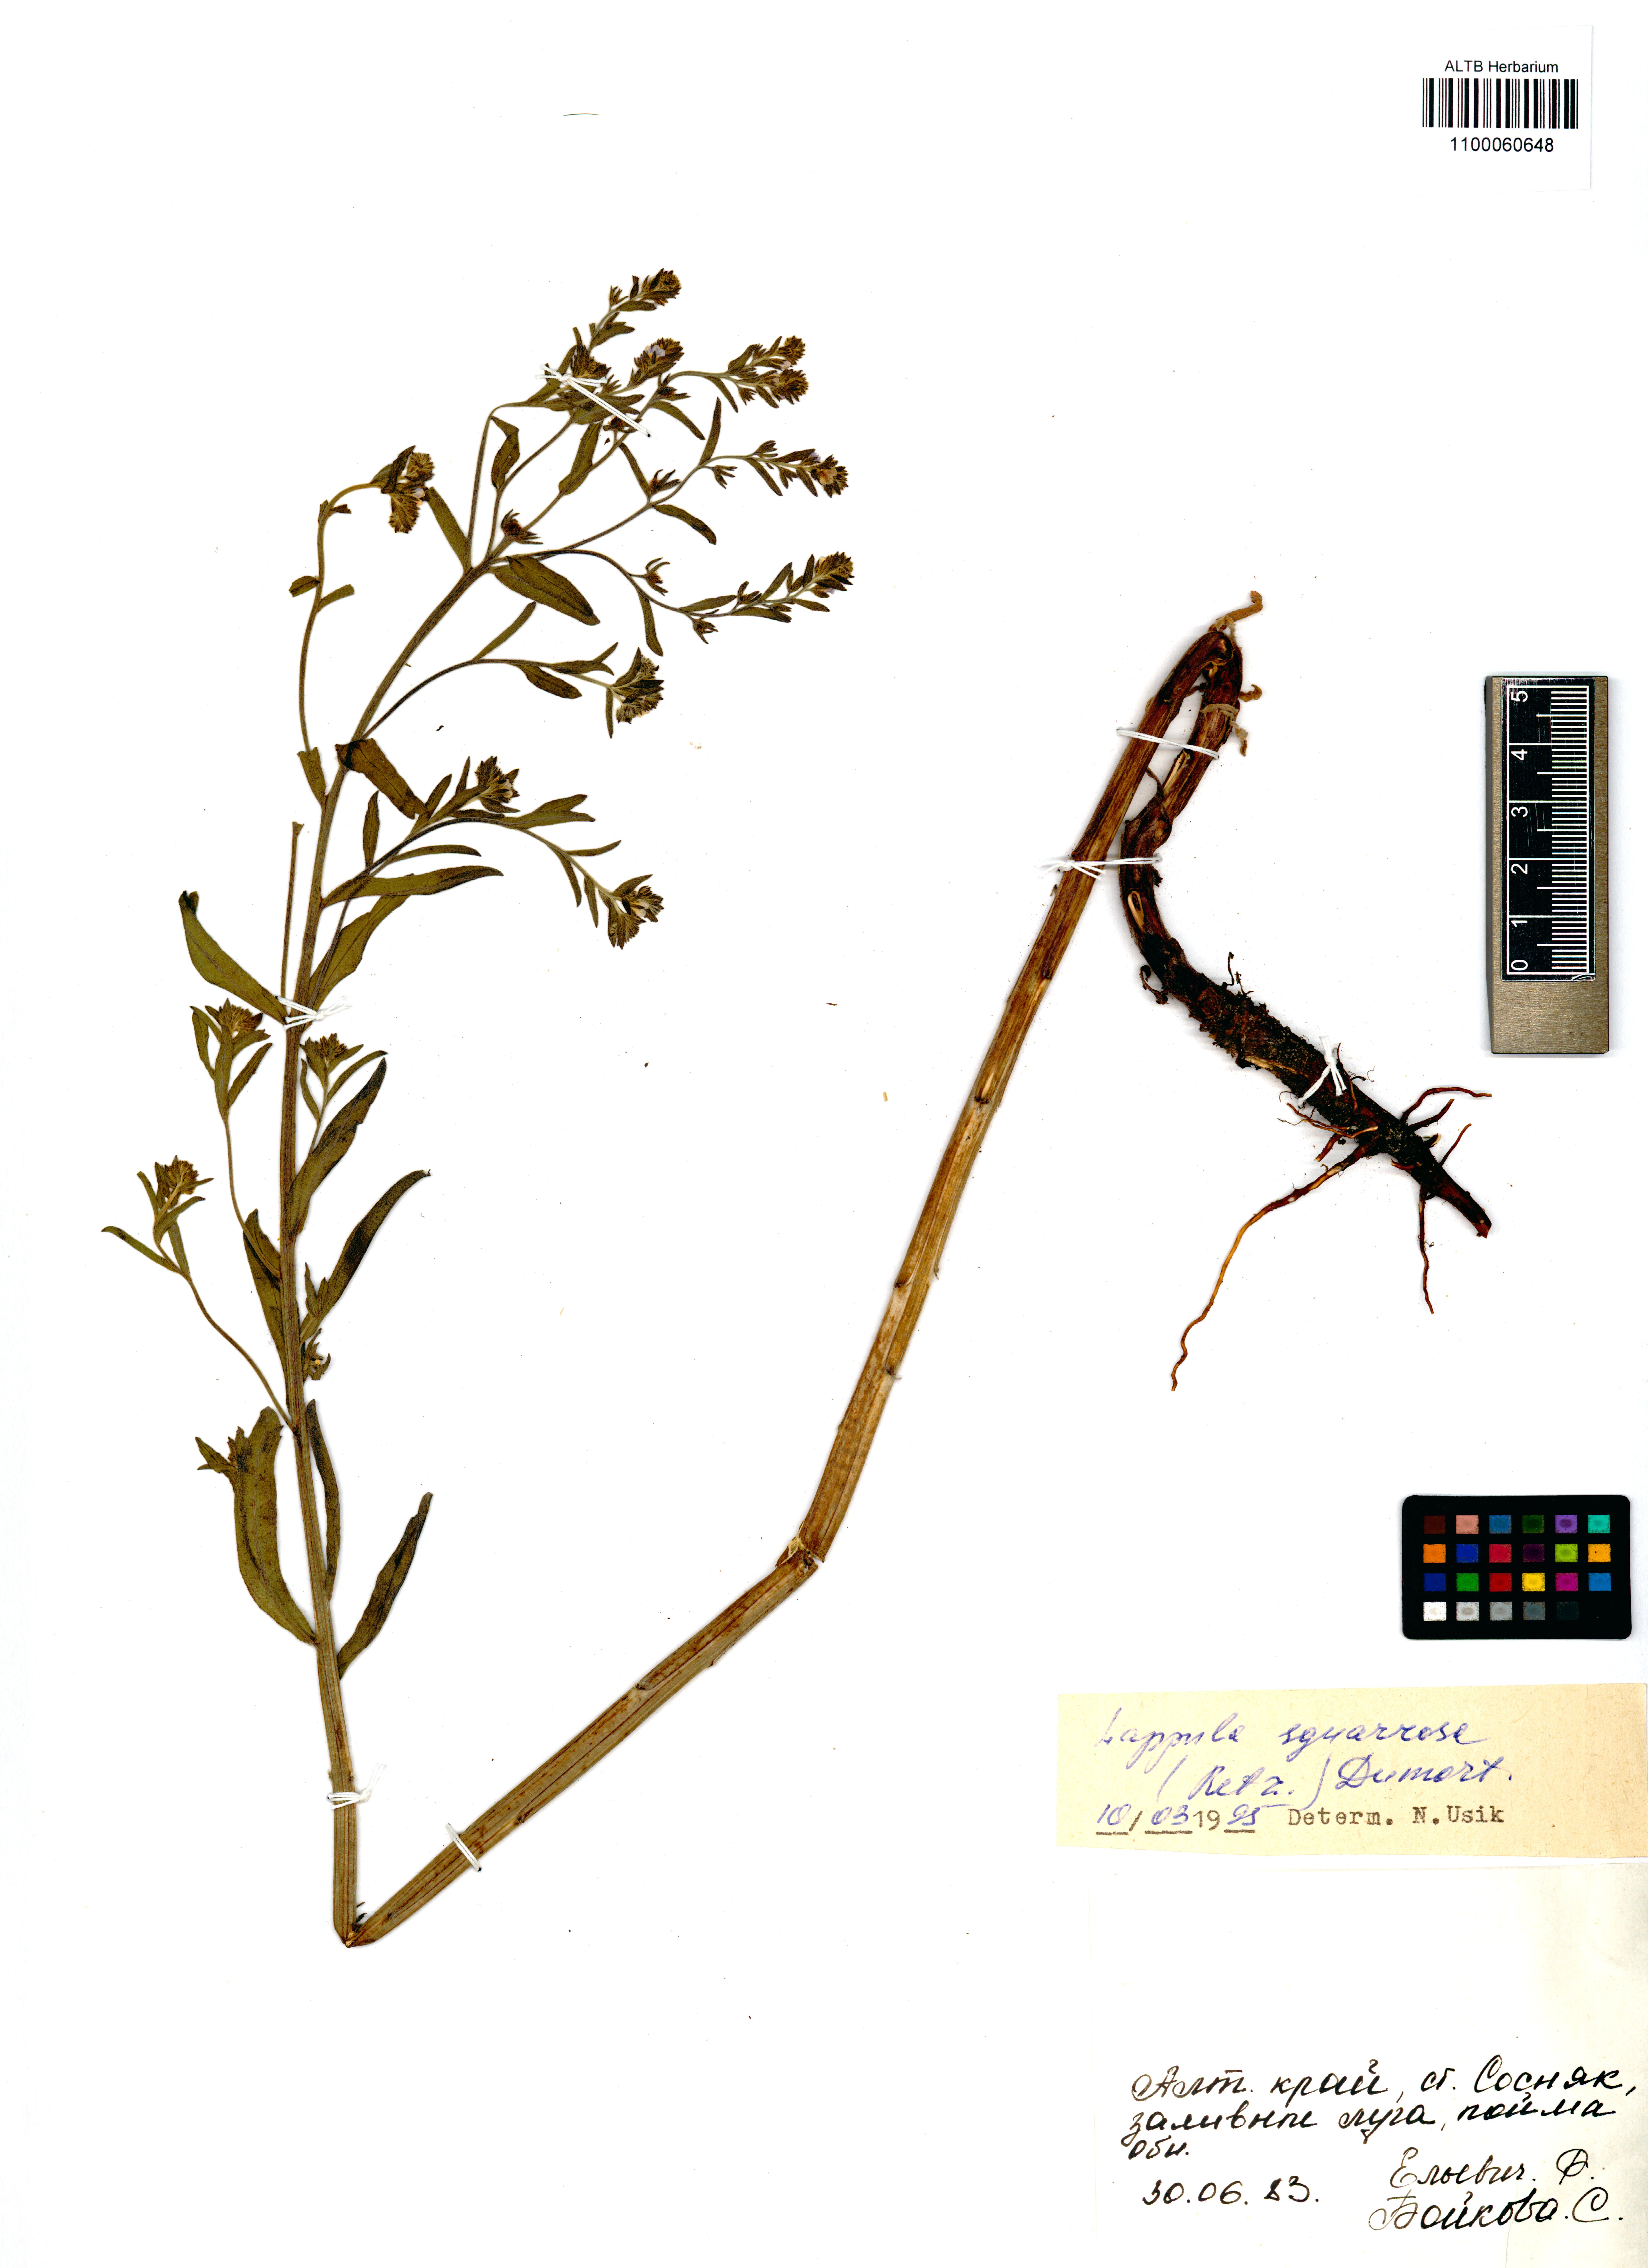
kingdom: Plantae
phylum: Tracheophyta
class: Magnoliopsida
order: Boraginales
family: Boraginaceae
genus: Lappula
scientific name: Lappula squarrosa
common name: European stickseed
